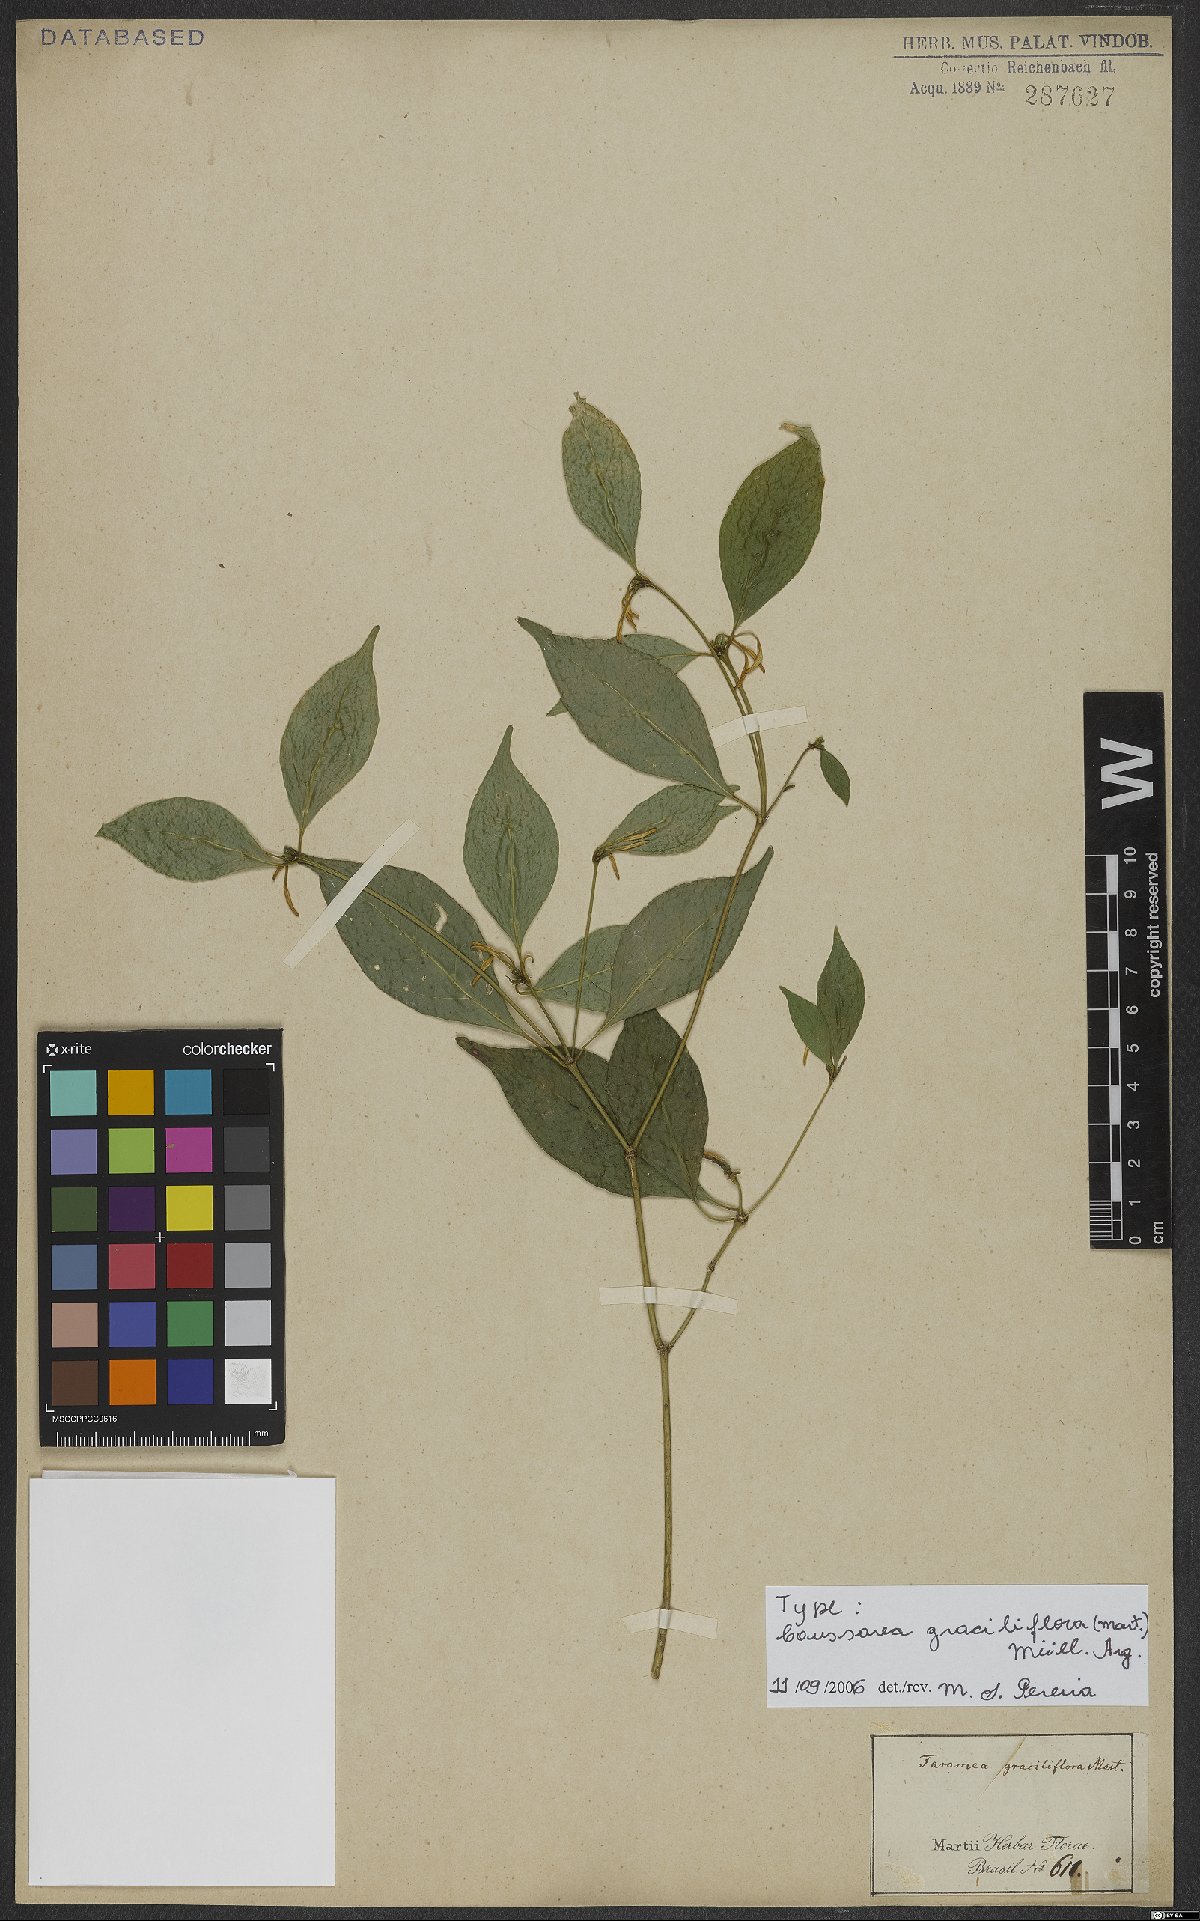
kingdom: Plantae
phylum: Tracheophyta
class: Magnoliopsida
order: Gentianales
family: Rubiaceae
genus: Coussarea
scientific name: Coussarea graciliflora
